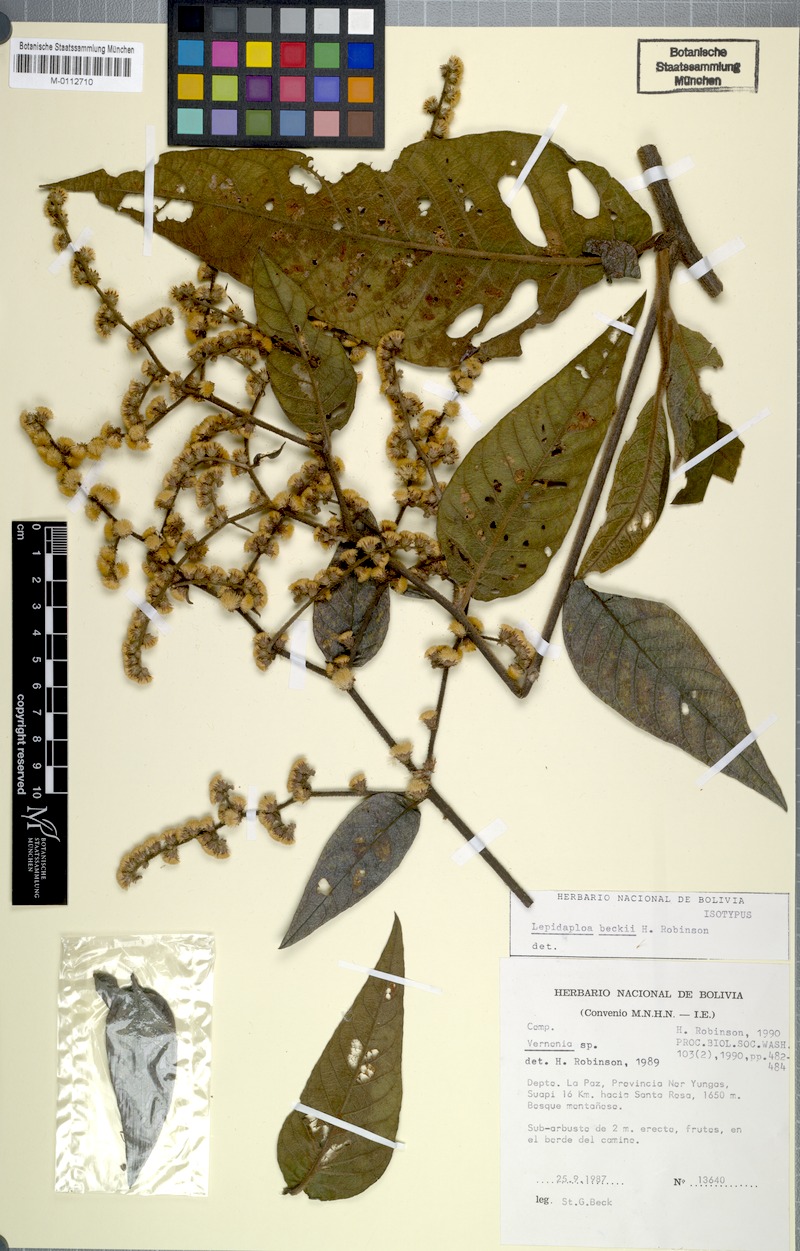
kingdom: Plantae
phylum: Tracheophyta
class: Magnoliopsida
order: Asterales
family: Asteraceae
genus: Lepidaploa
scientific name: Lepidaploa beckii
